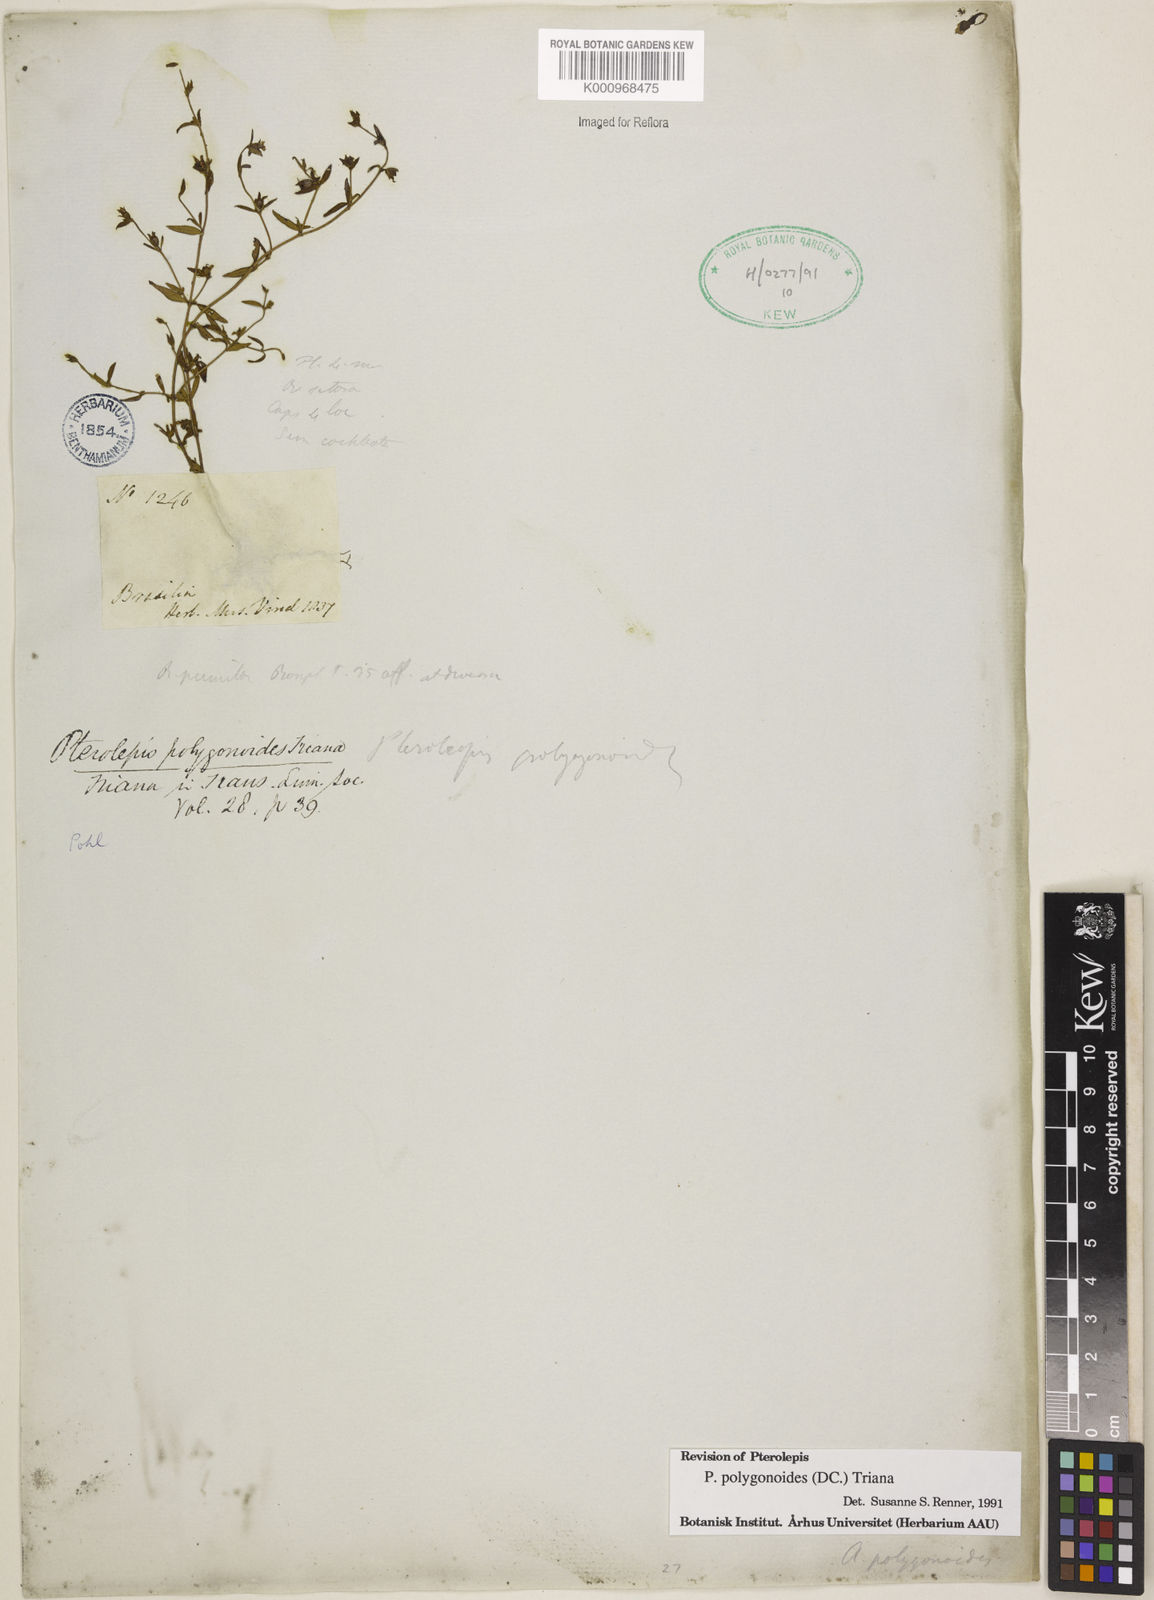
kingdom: Plantae
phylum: Tracheophyta
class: Magnoliopsida
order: Myrtales
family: Melastomataceae
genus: Pterolepis
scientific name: Pterolepis polygonoides
